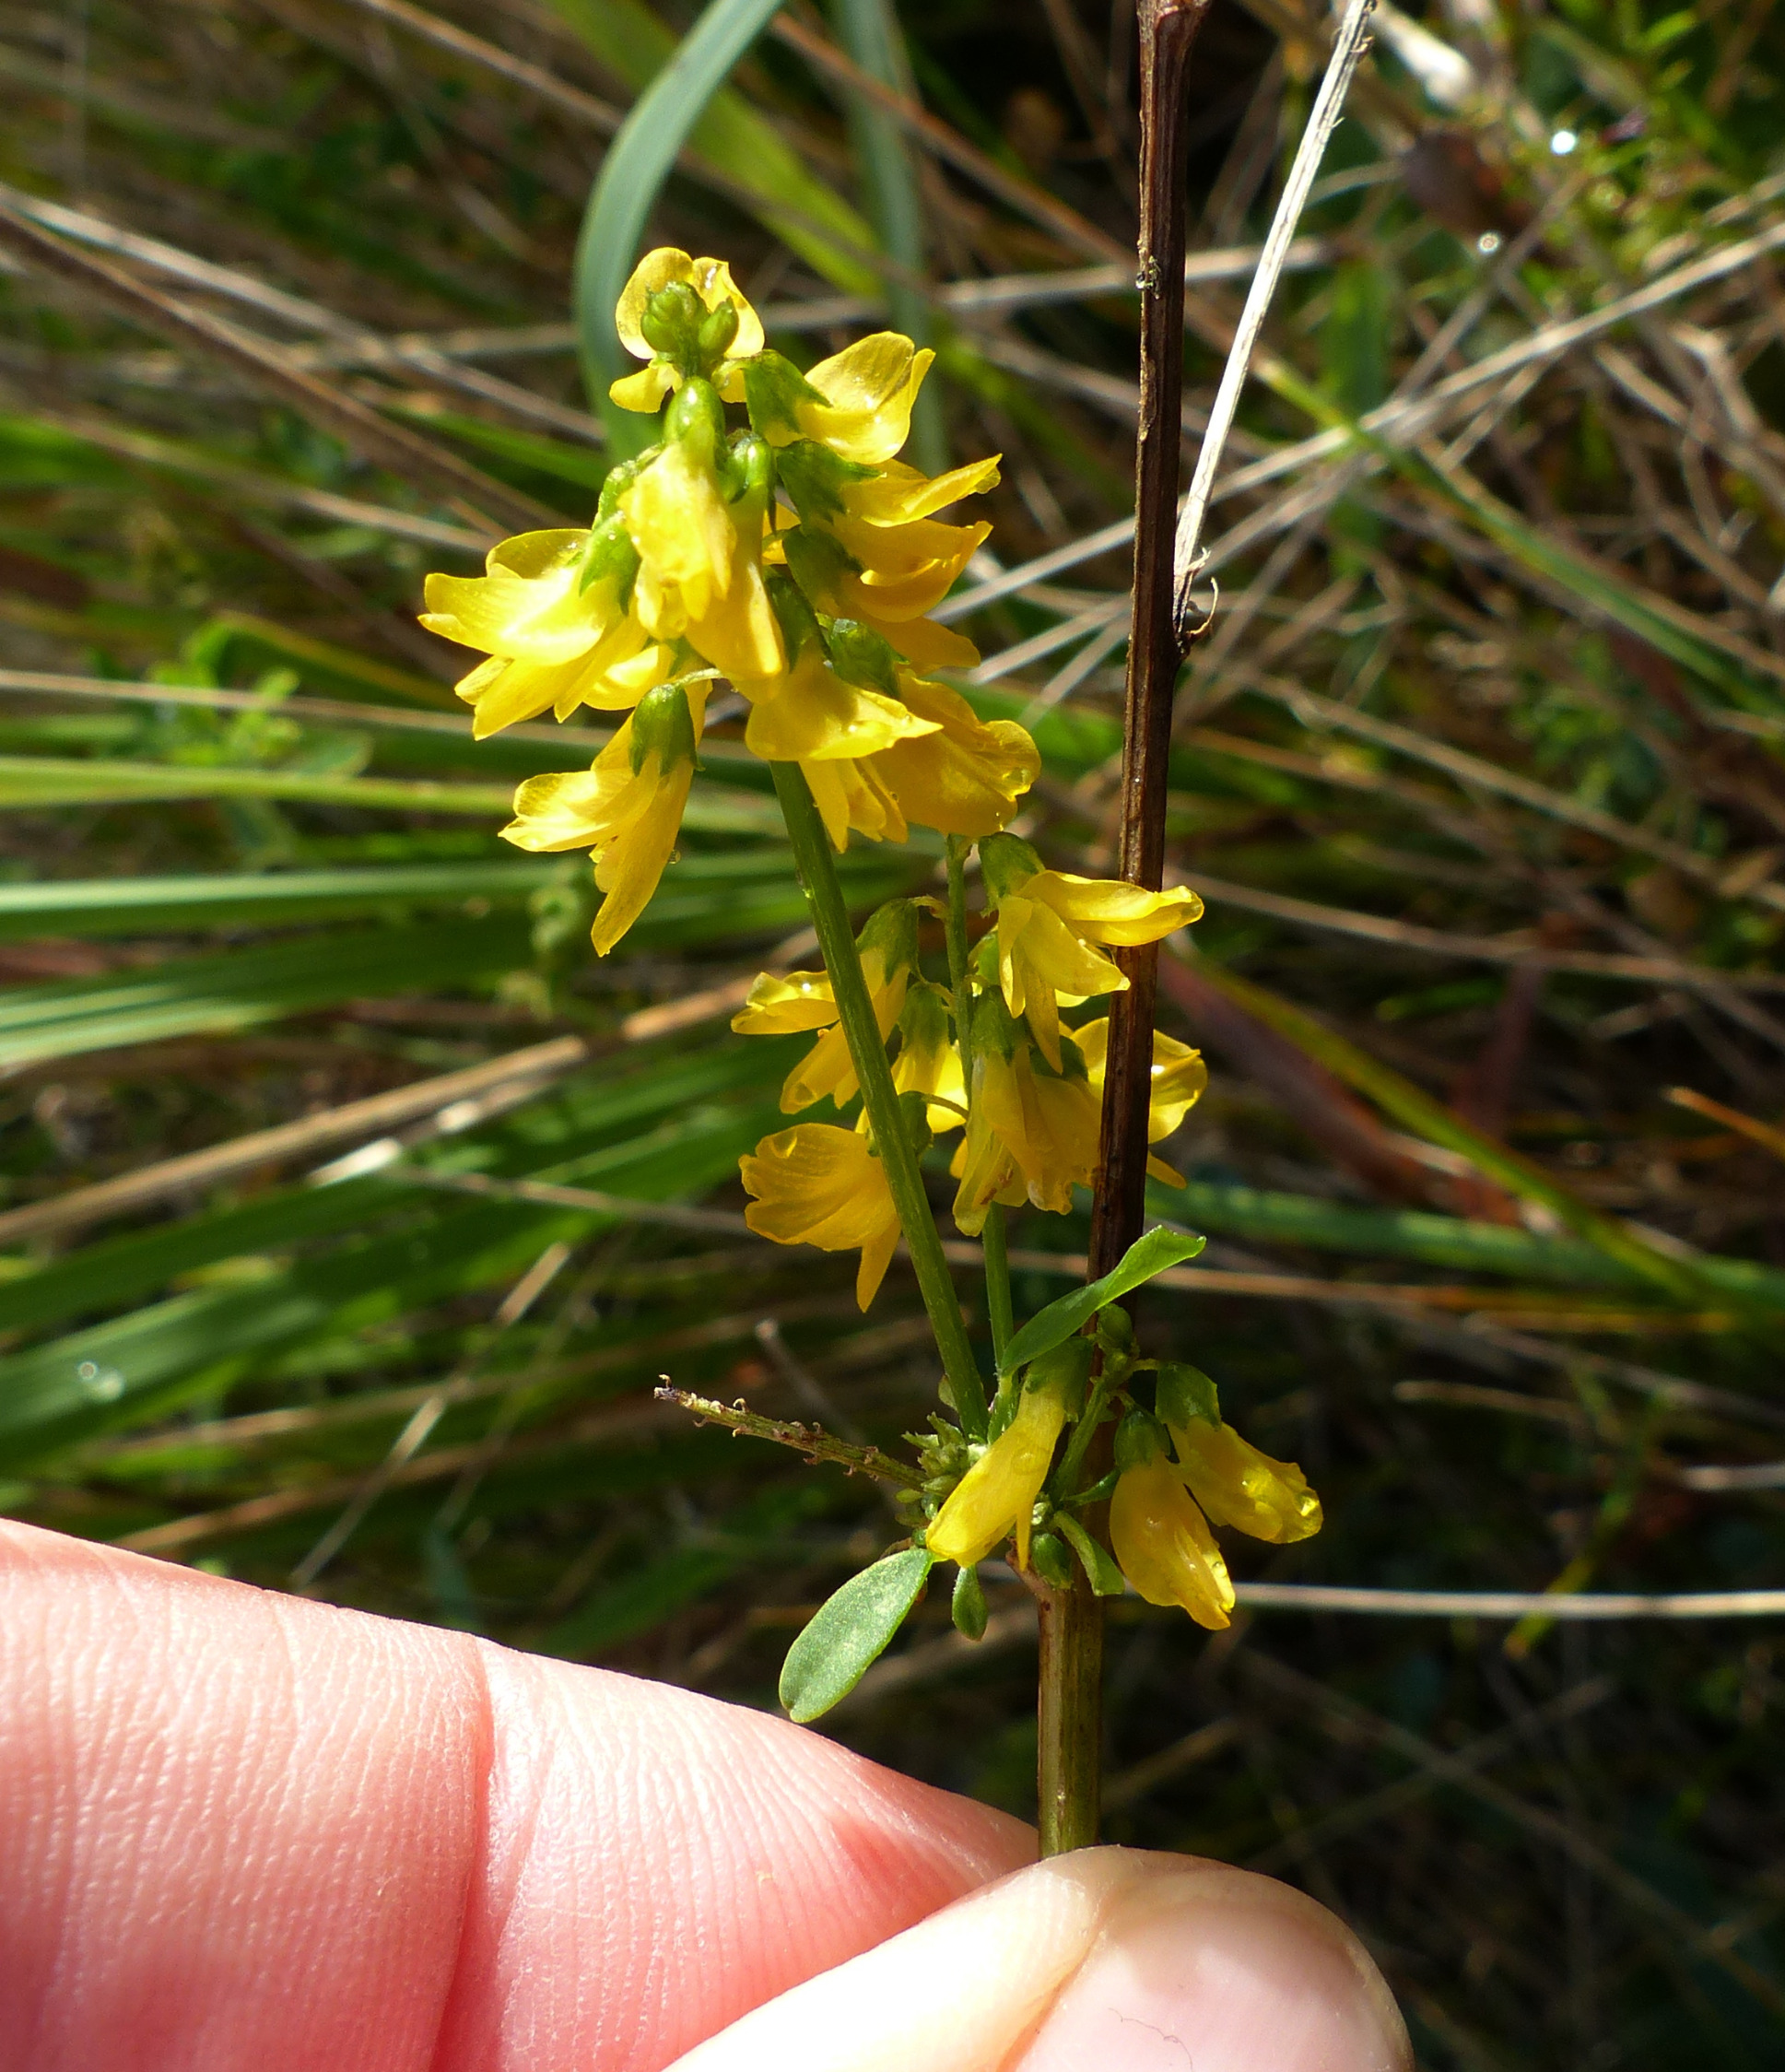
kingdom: Plantae
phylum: Tracheophyta
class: Magnoliopsida
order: Fabales
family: Fabaceae
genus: Melilotus
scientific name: Melilotus altissimus
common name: Høj stenkløver
